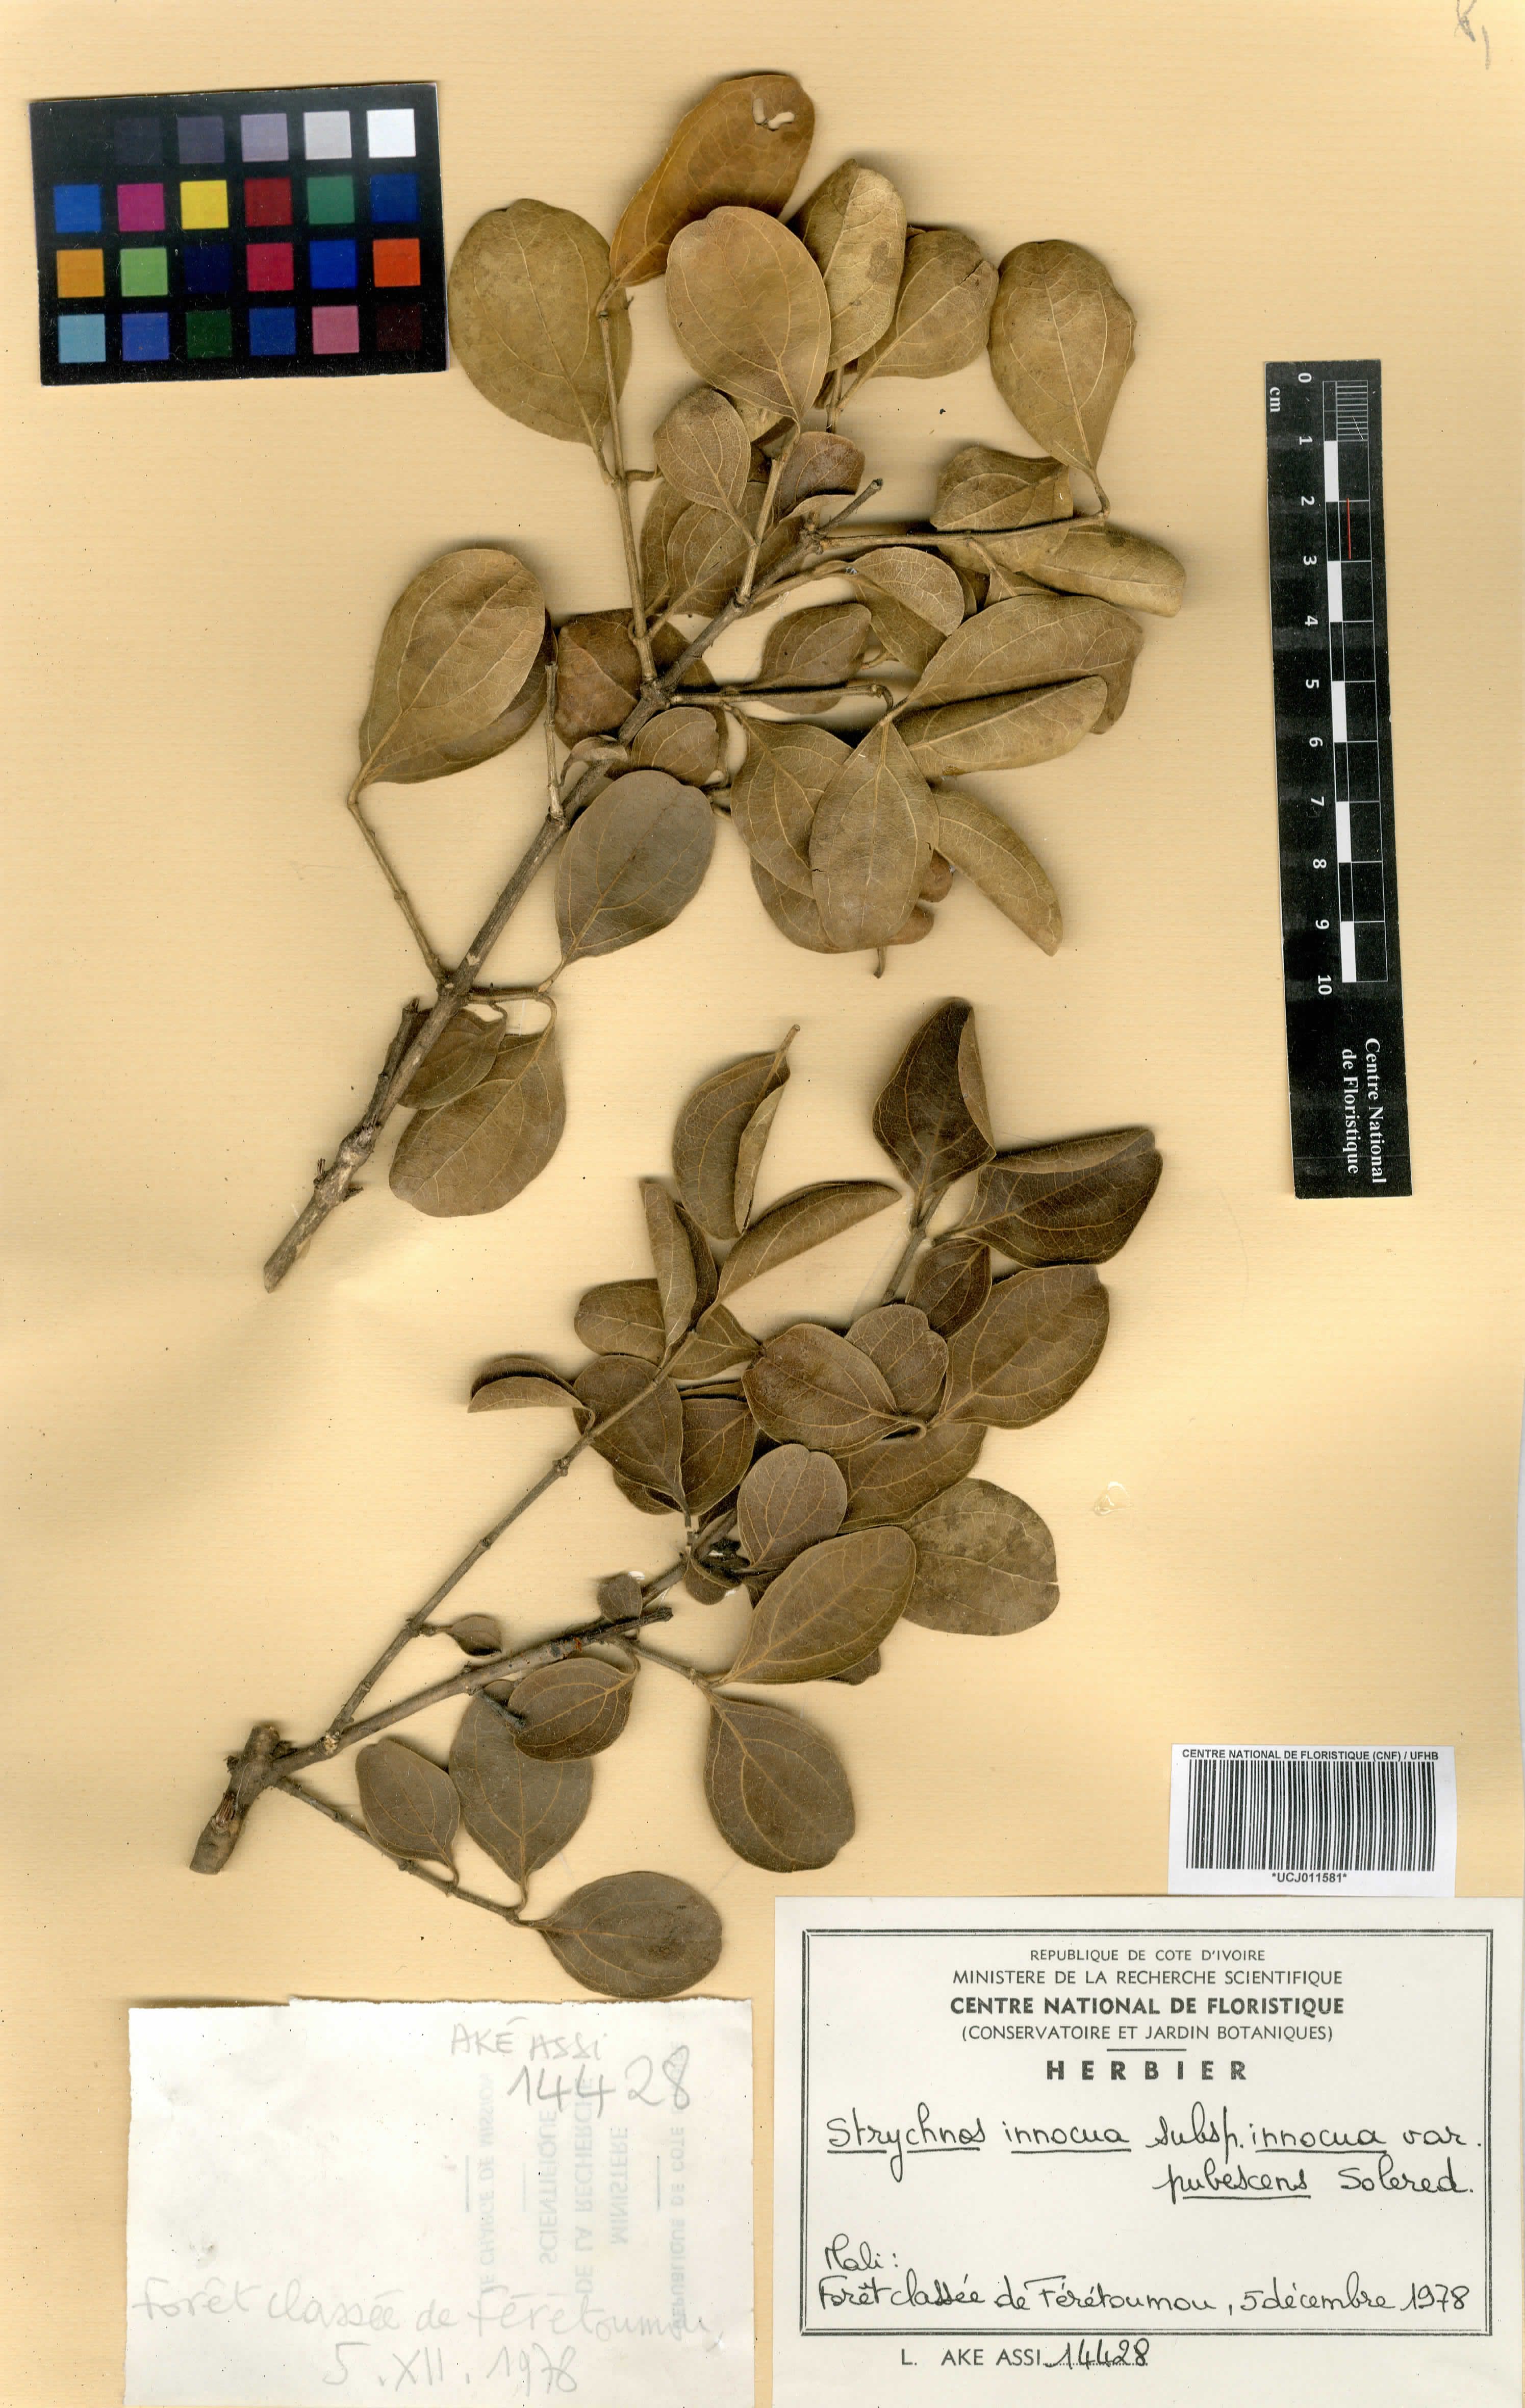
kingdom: Plantae
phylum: Tracheophyta
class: Magnoliopsida
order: Gentianales
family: Loganiaceae
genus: Strychnos
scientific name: Strychnos innocua
